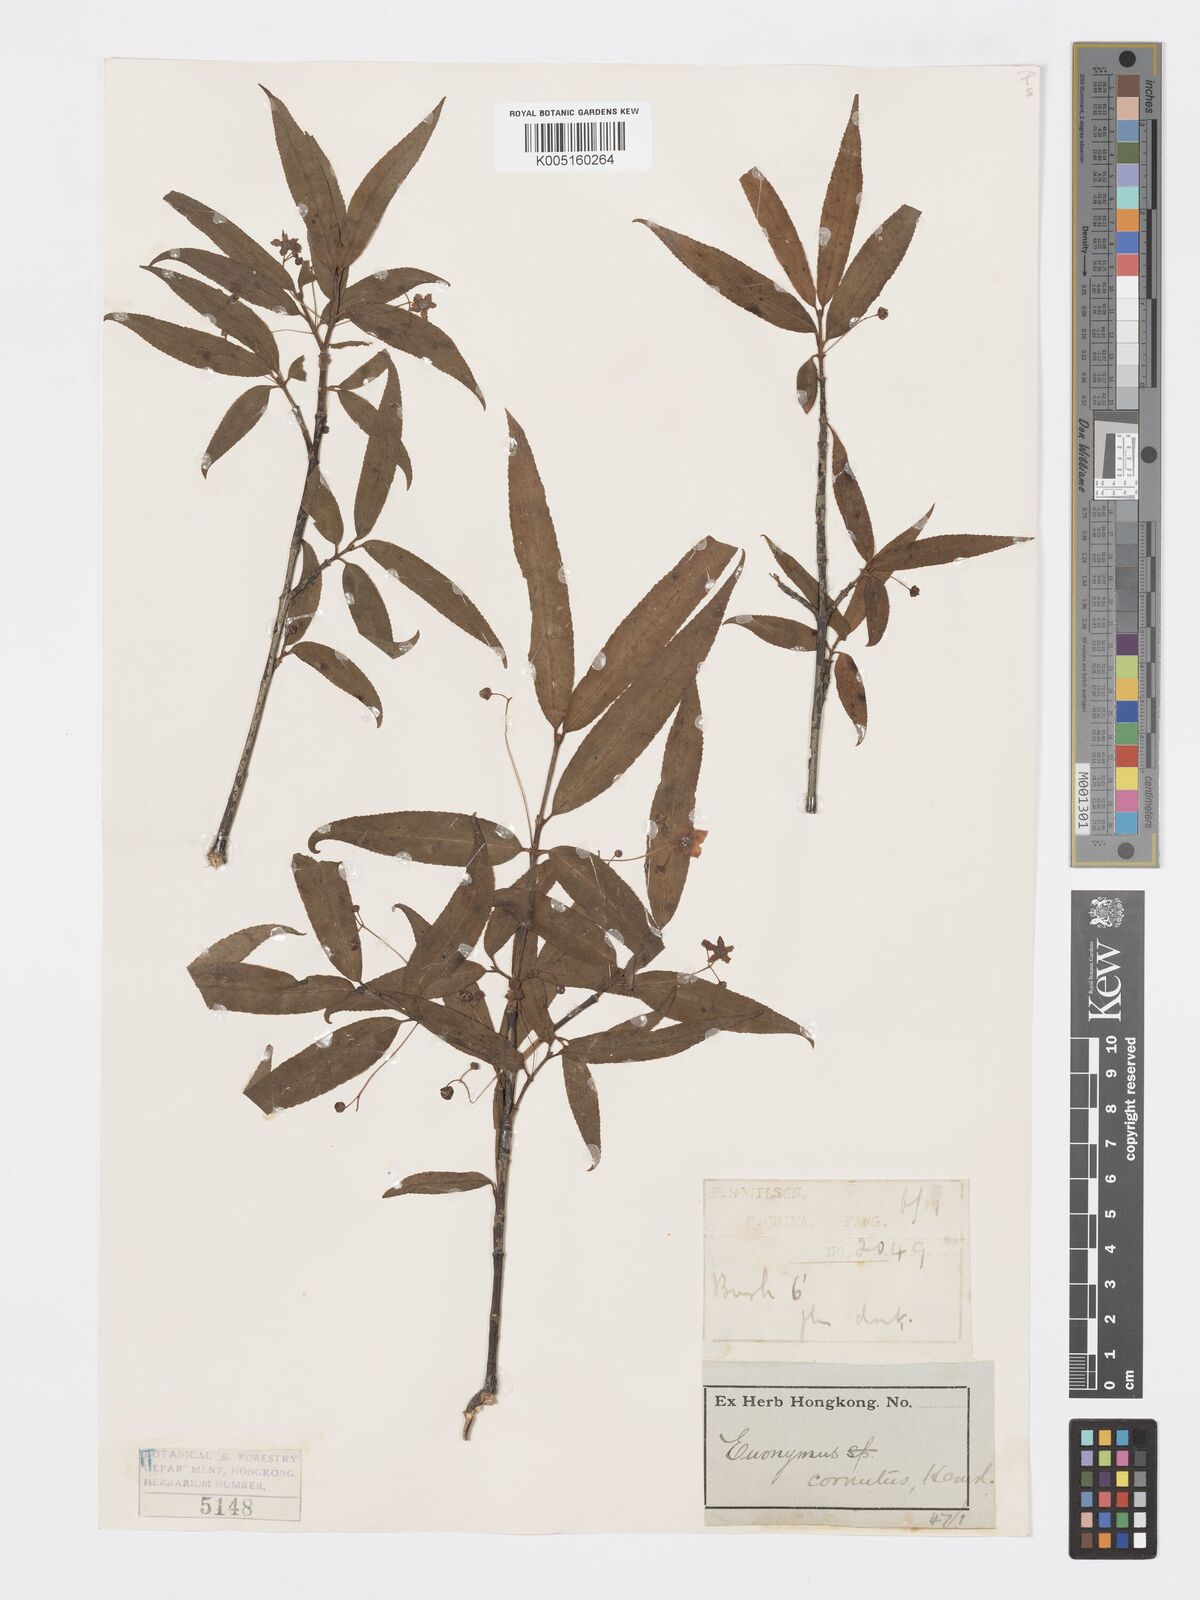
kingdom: Plantae
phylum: Tracheophyta
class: Magnoliopsida
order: Celastrales
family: Celastraceae
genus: Euonymus
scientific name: Euonymus cornutus
